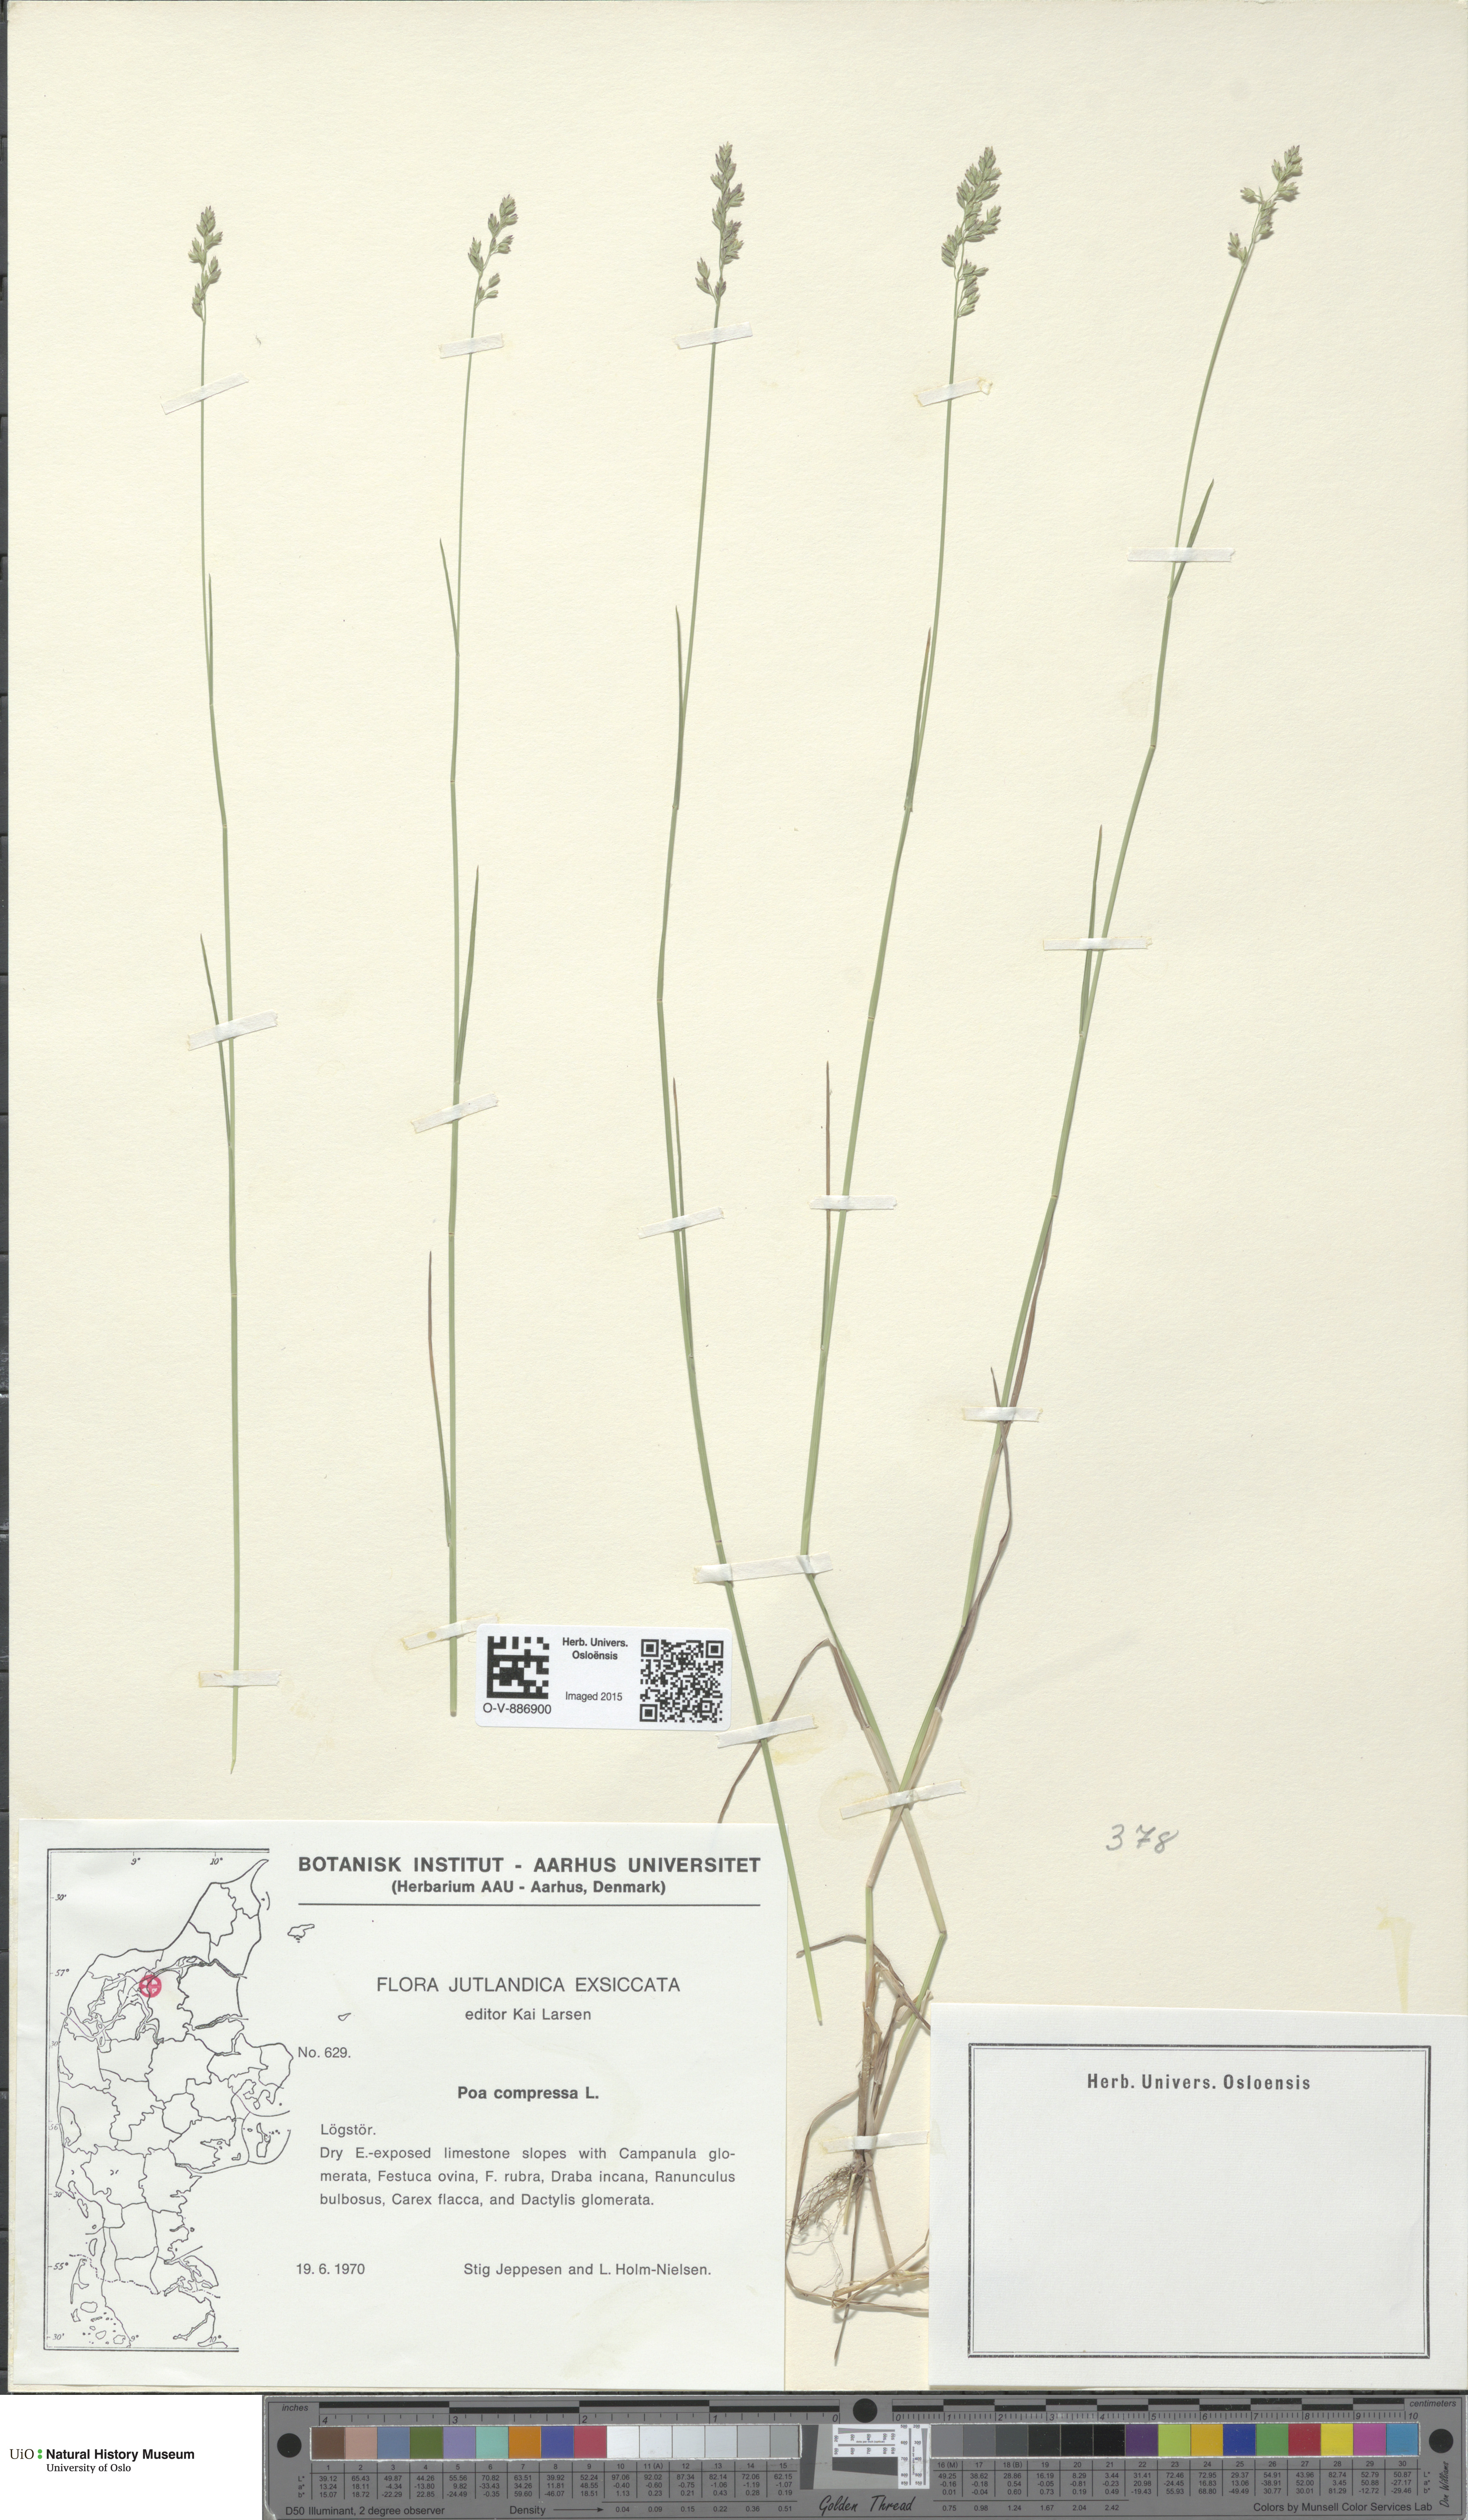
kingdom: Plantae
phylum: Tracheophyta
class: Liliopsida
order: Poales
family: Poaceae
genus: Poa
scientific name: Poa compressa
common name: Canada bluegrass
